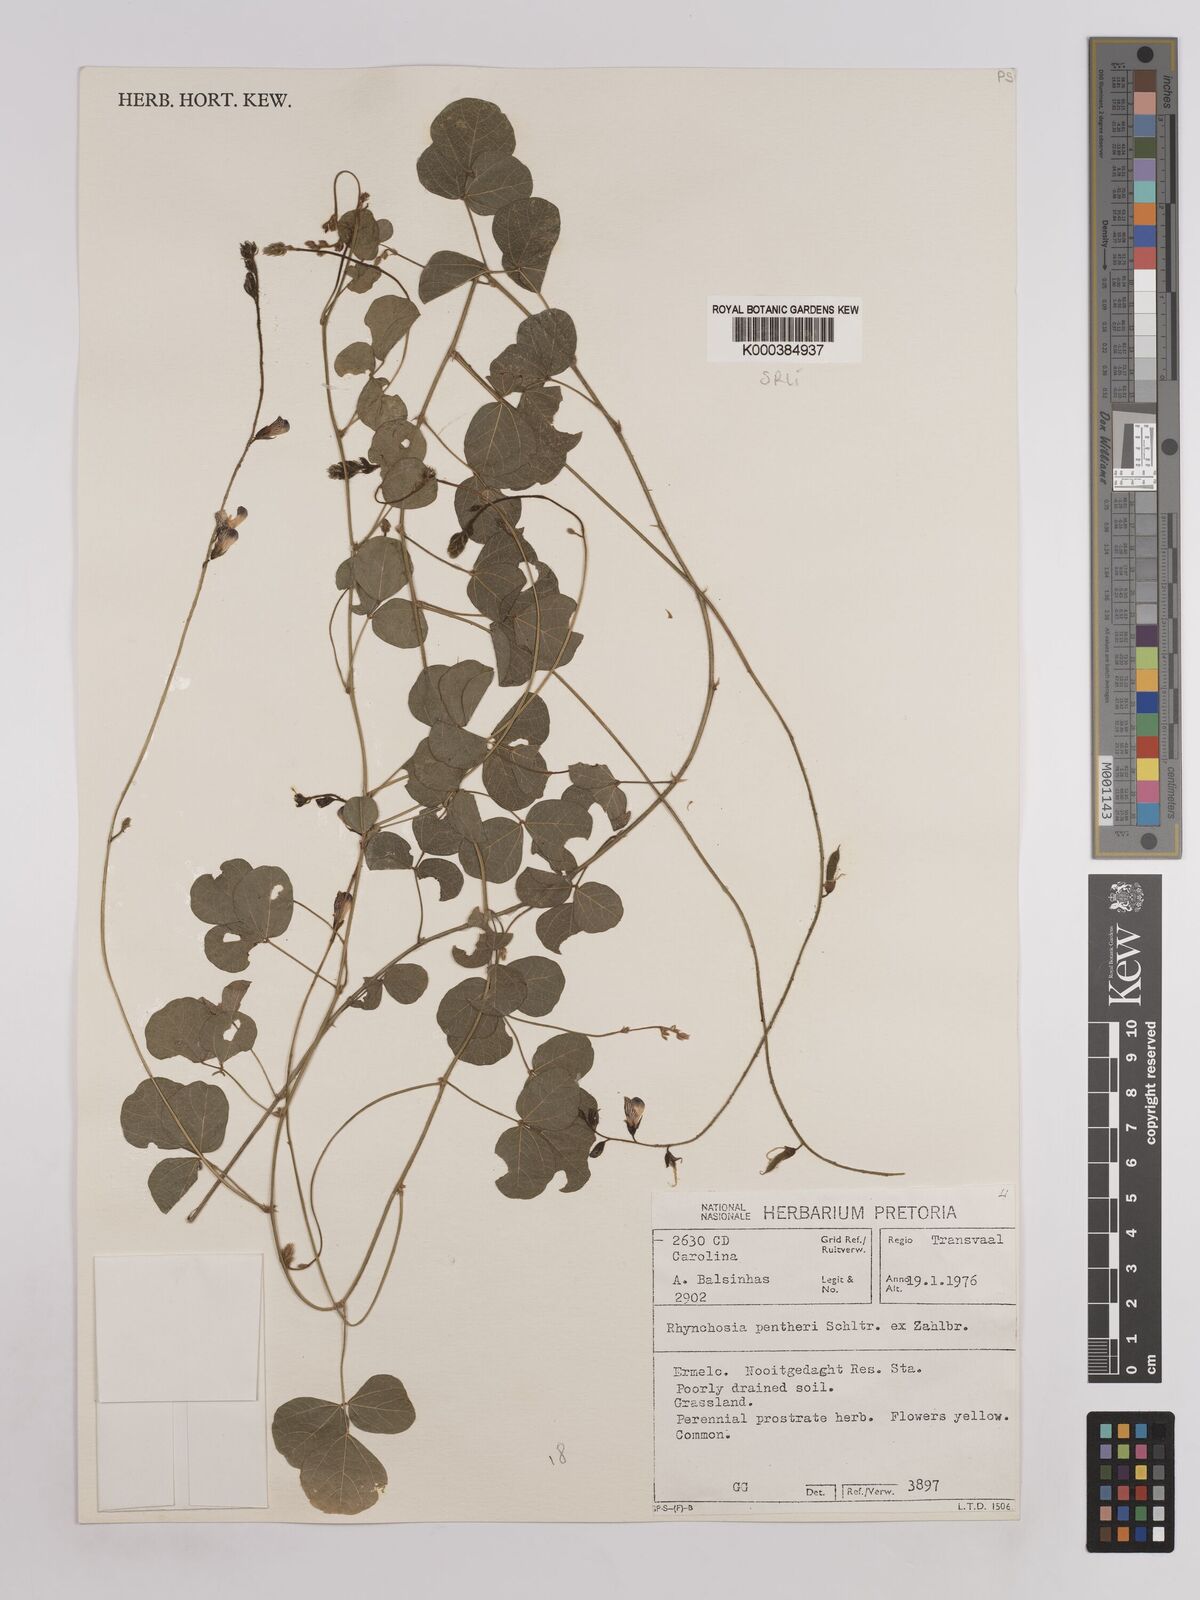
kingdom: Plantae
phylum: Tracheophyta
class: Magnoliopsida
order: Fabales
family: Fabaceae
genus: Rhynchosia
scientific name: Rhynchosia pentheri
